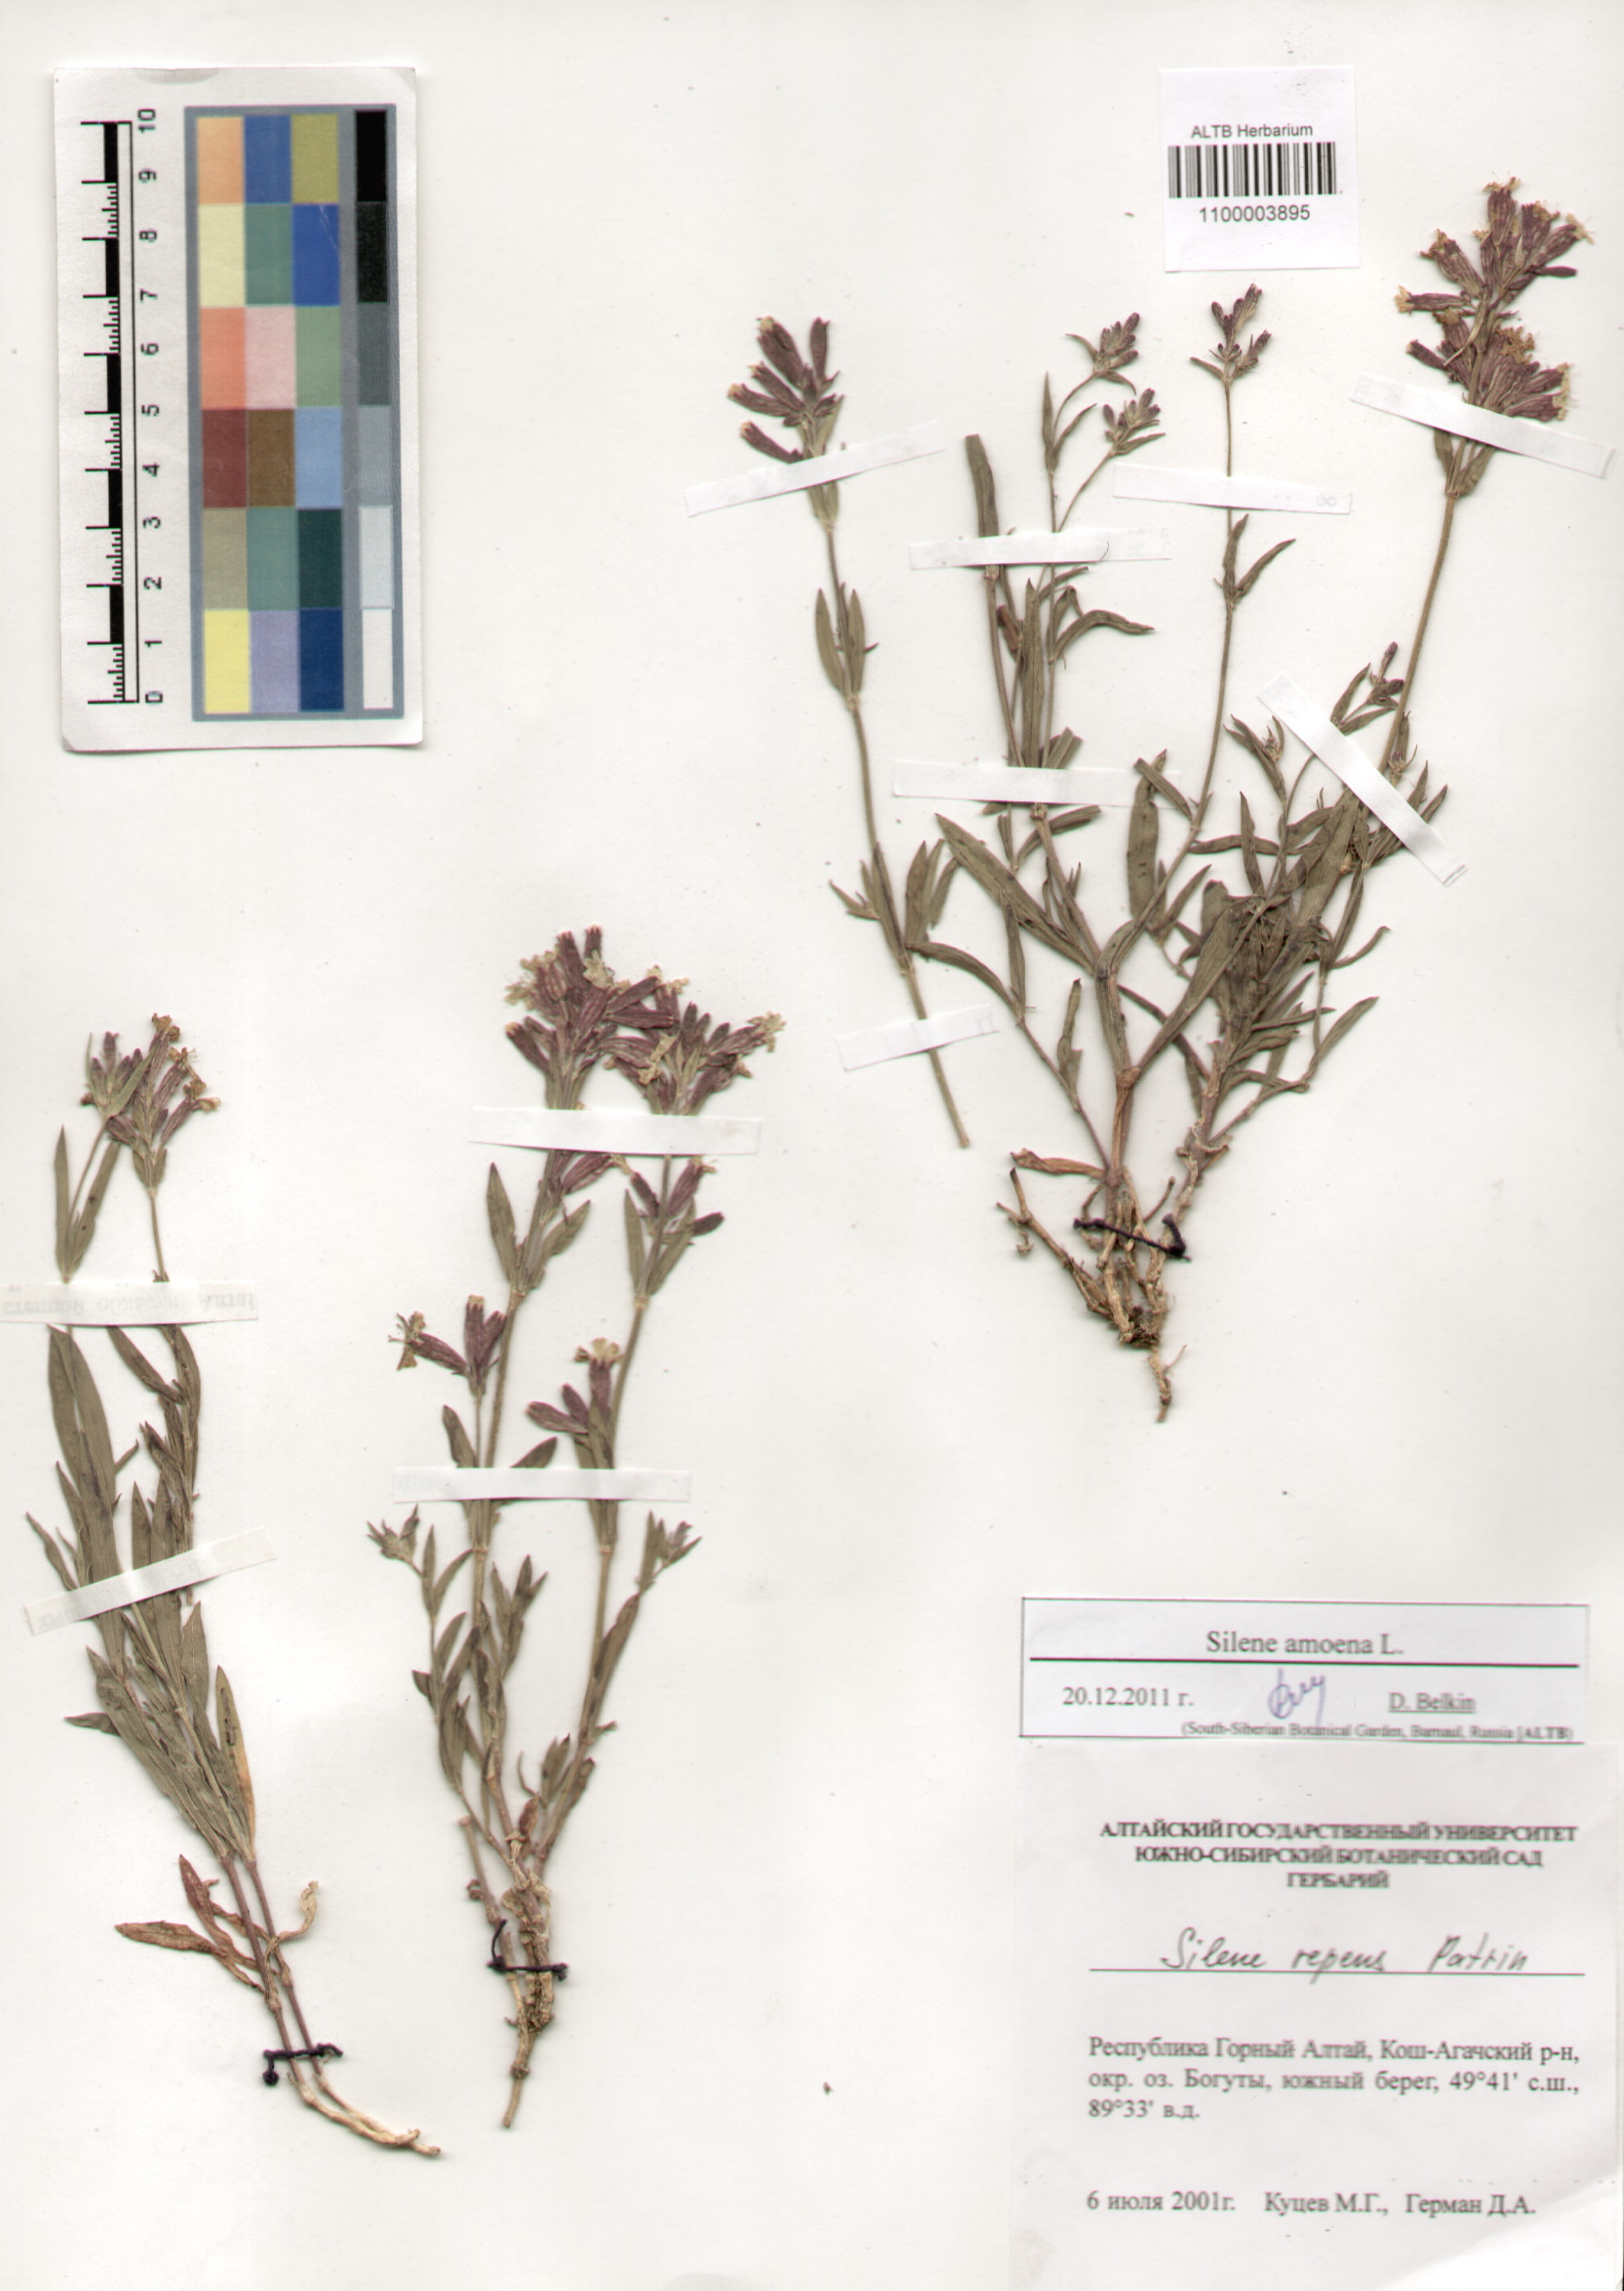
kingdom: Plantae
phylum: Tracheophyta
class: Magnoliopsida
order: Caryophyllales
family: Caryophyllaceae
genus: Silene
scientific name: Silene amoena
